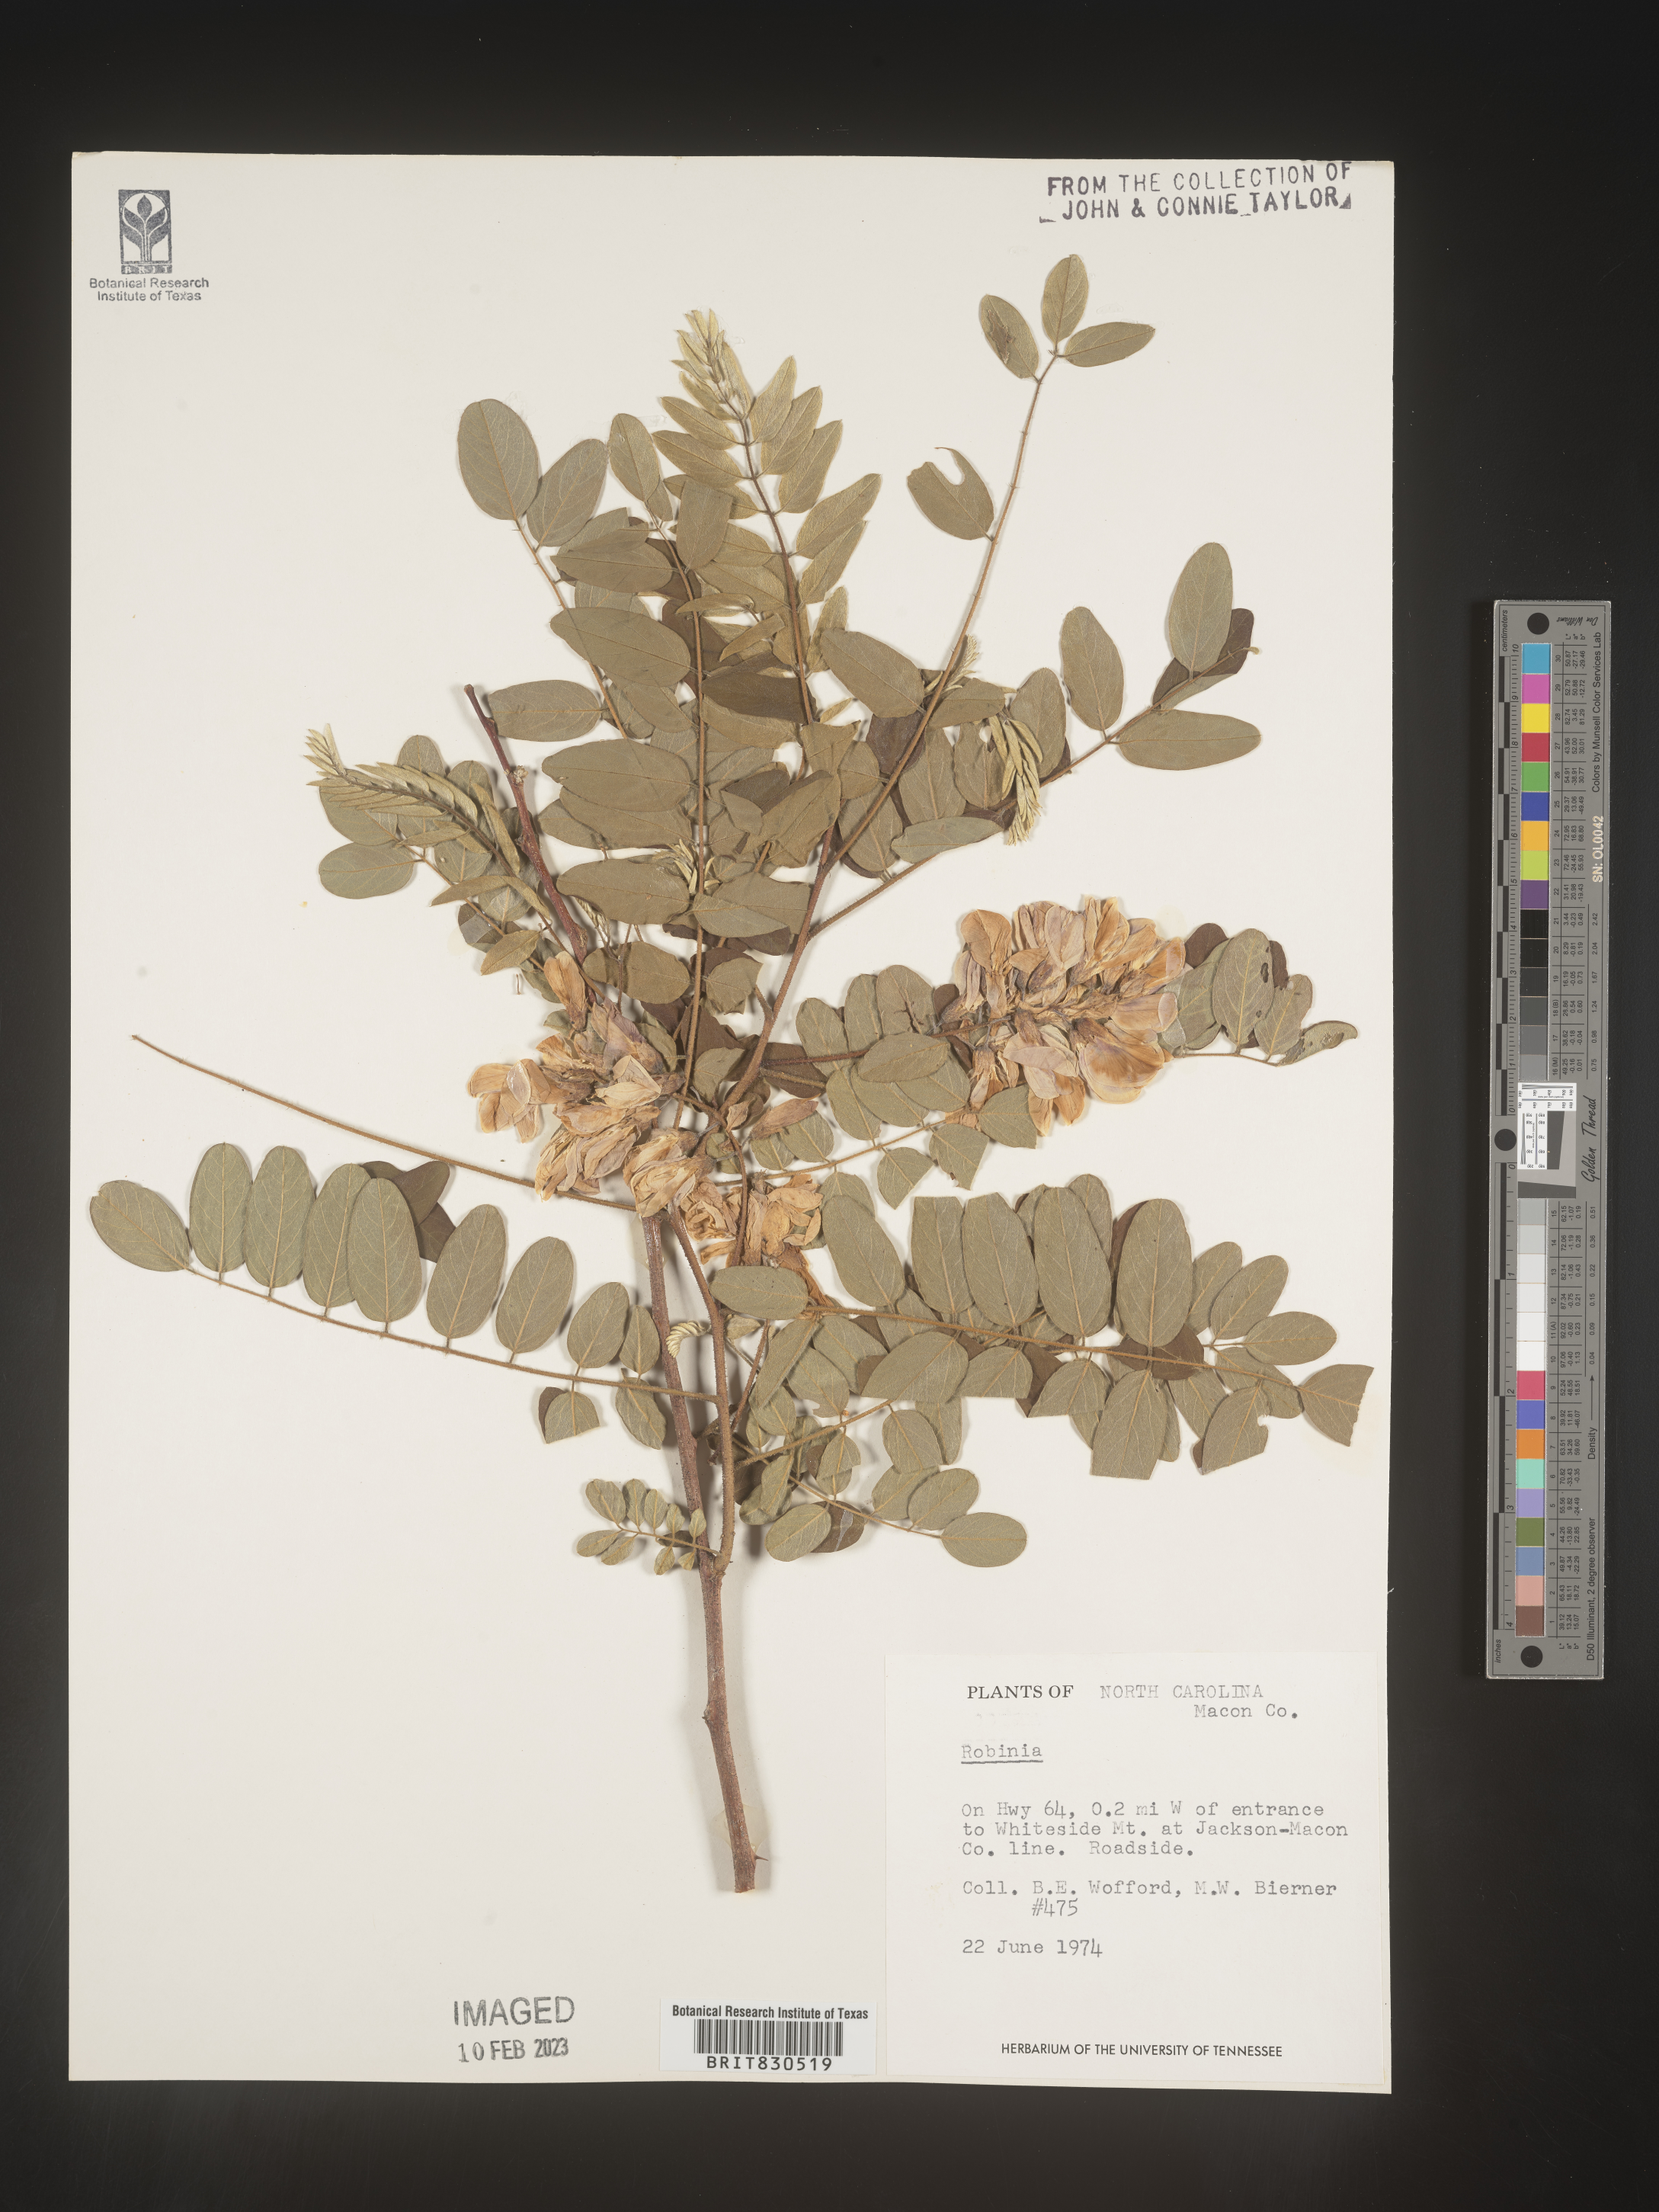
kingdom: Plantae
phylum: Tracheophyta
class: Magnoliopsida
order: Fabales
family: Fabaceae
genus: Robinia
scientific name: Robinia
